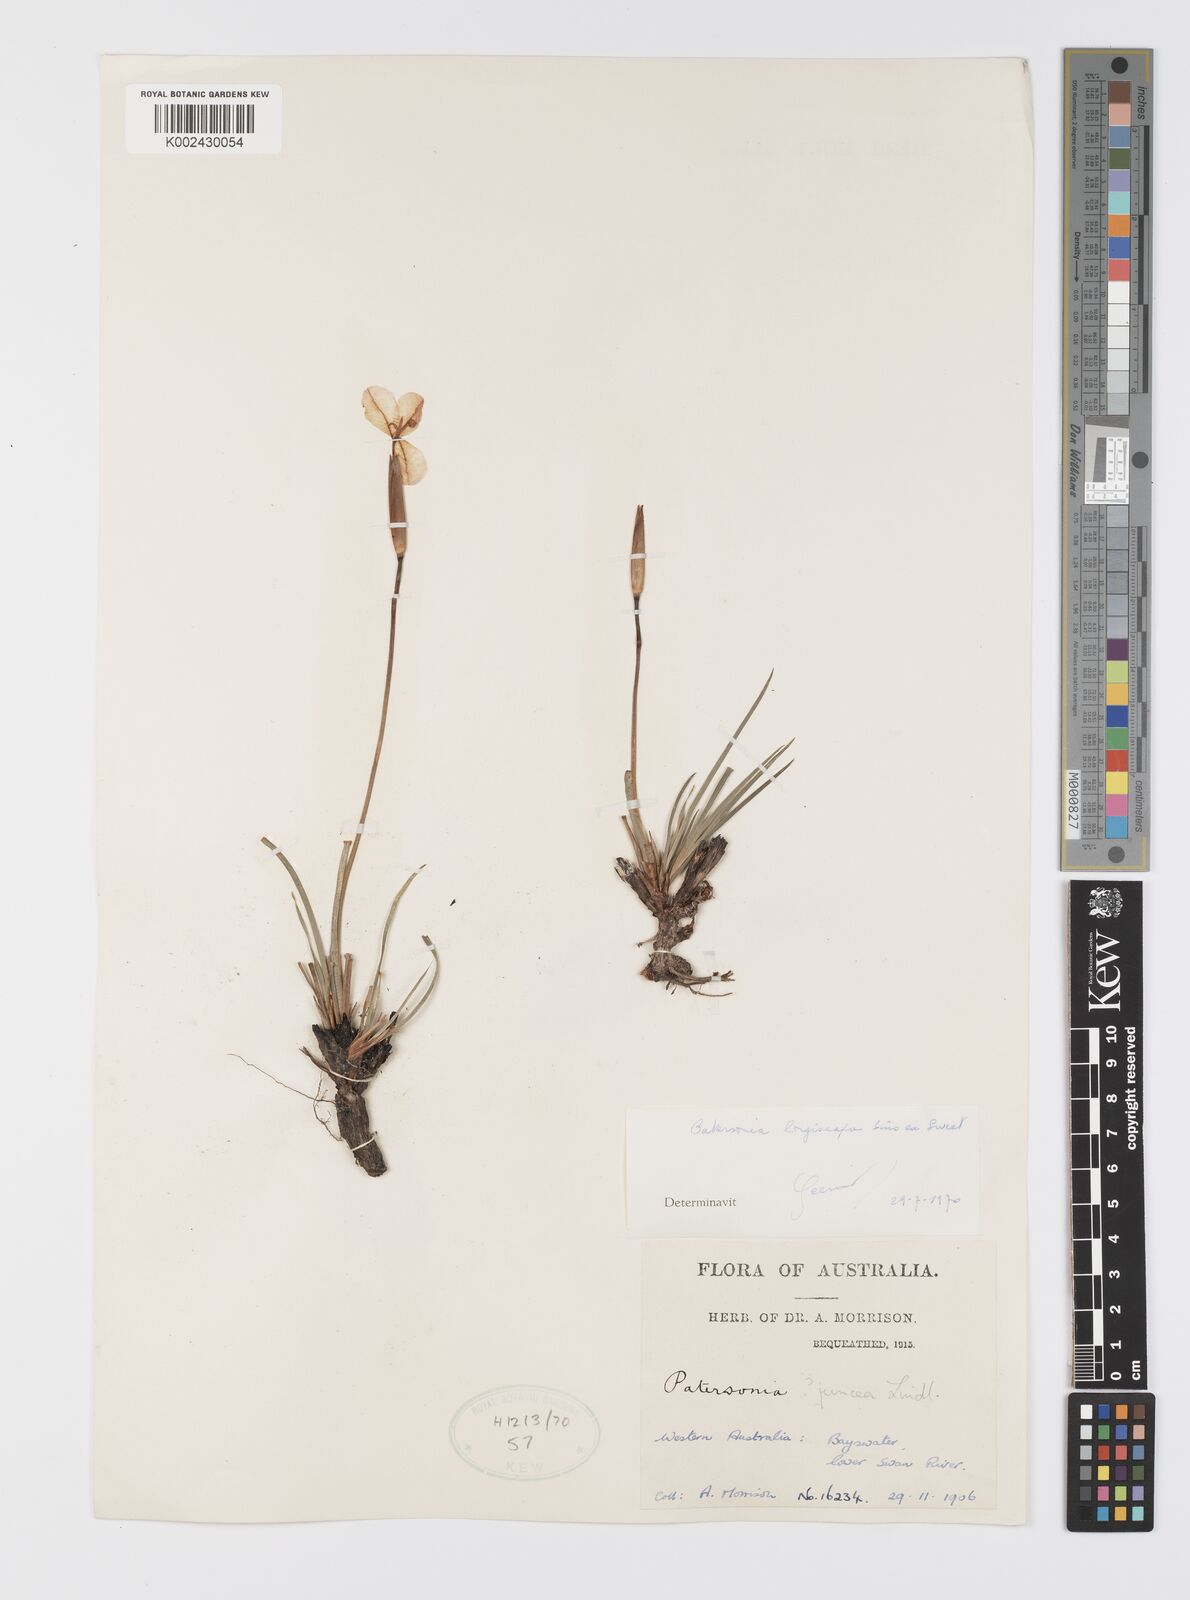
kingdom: Plantae
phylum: Tracheophyta
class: Liliopsida
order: Asparagales
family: Iridaceae
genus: Patersonia
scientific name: Patersonia occidentalis
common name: Long purple-flag
